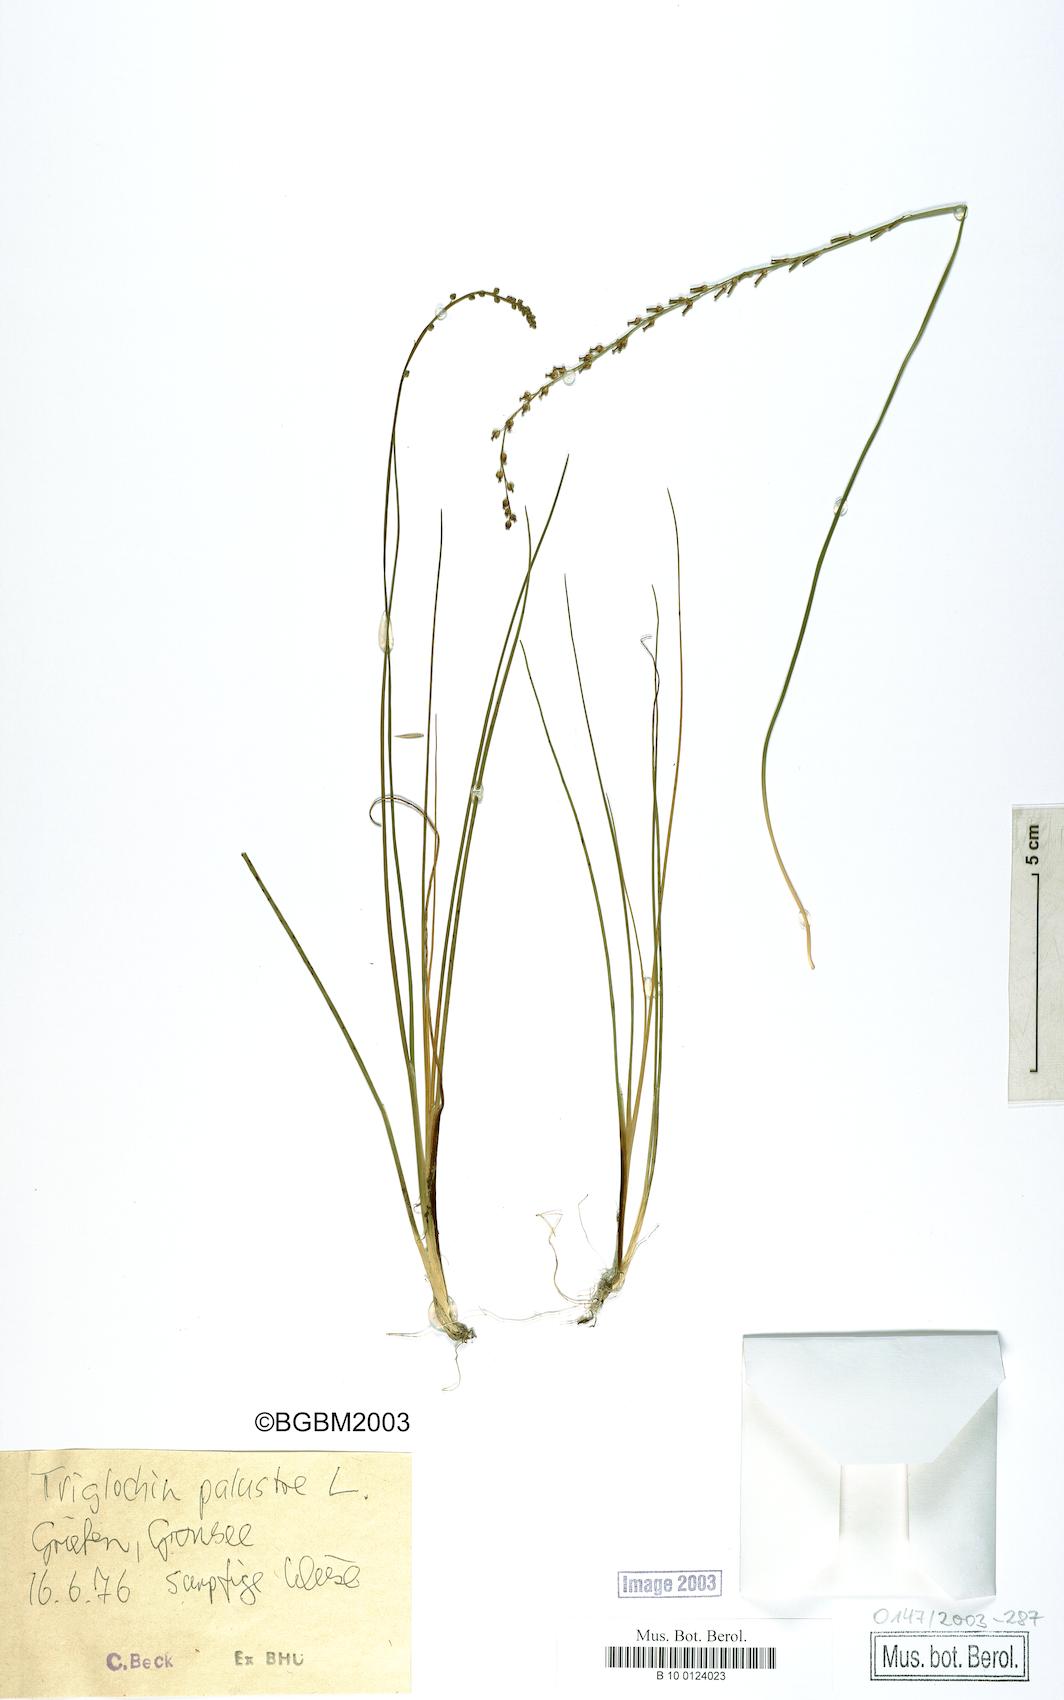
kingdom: Plantae
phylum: Tracheophyta
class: Liliopsida
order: Alismatales
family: Juncaginaceae
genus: Triglochin
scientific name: Triglochin palustris
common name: Marsh arrowgrass
